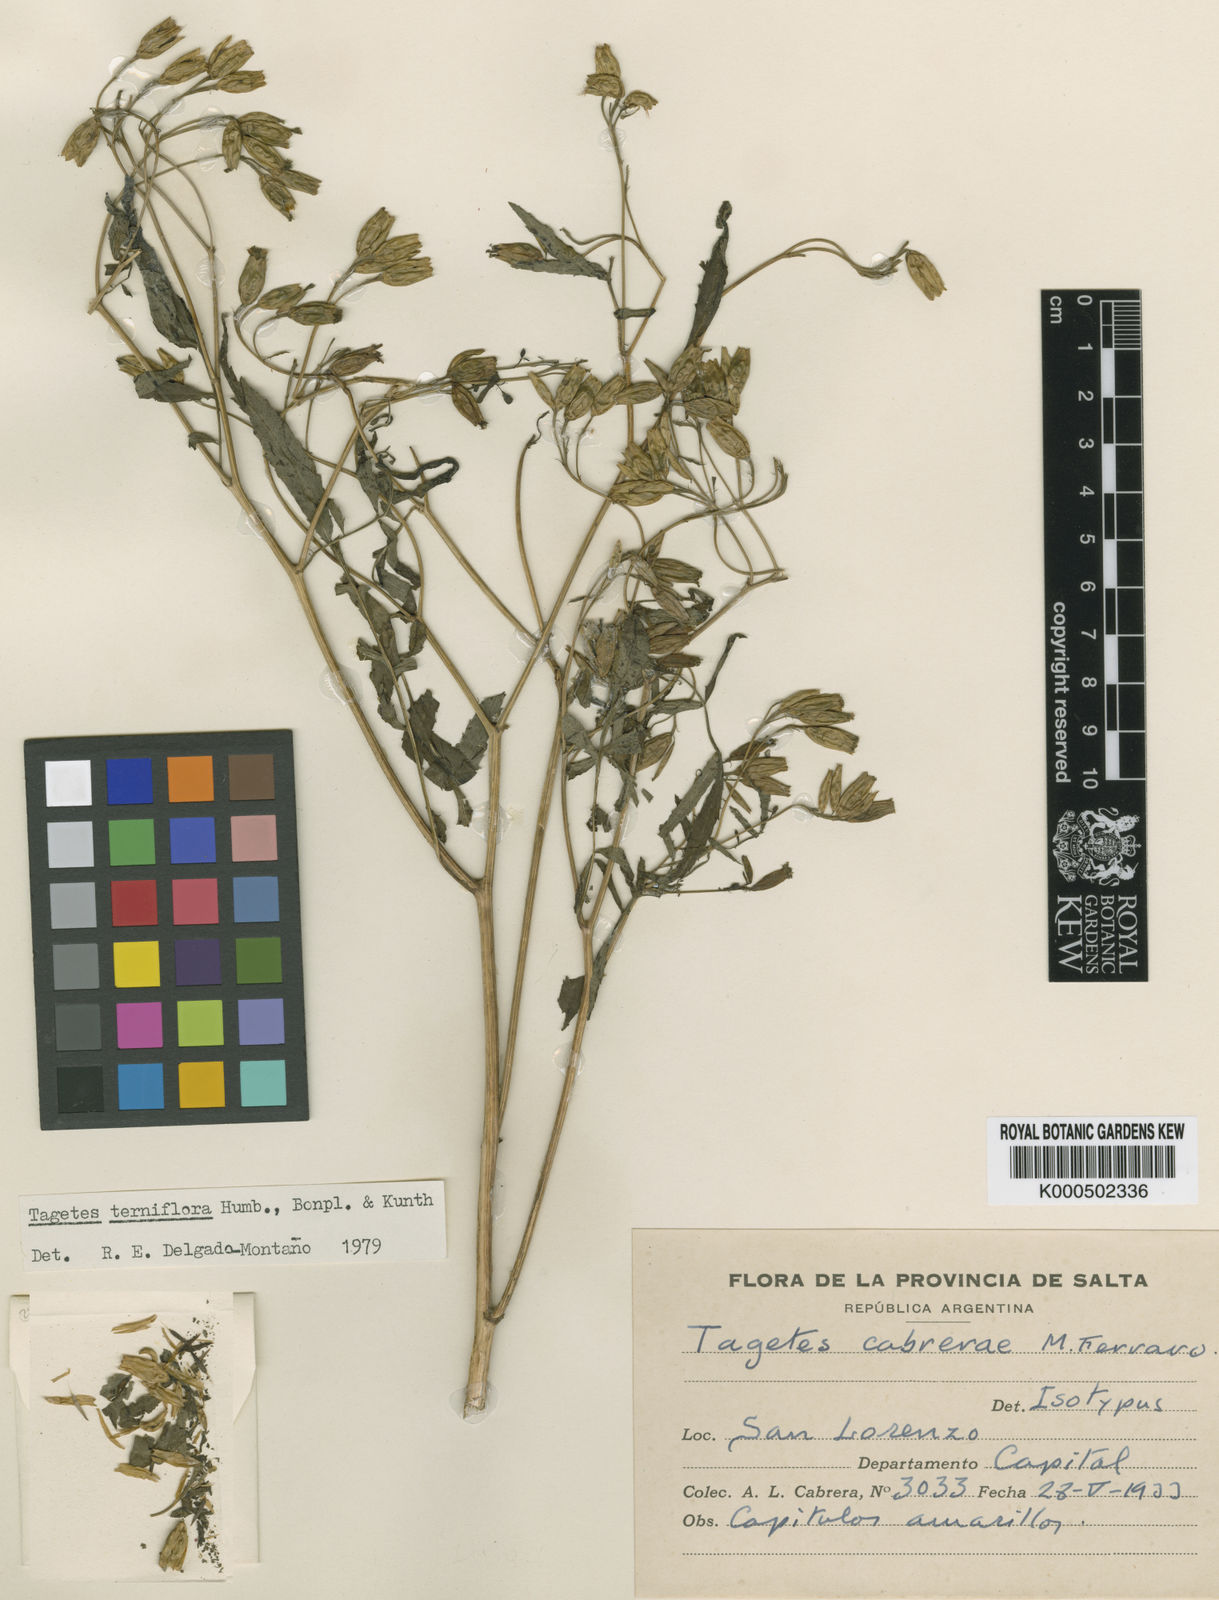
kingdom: Plantae
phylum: Tracheophyta
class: Magnoliopsida
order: Asterales
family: Asteraceae
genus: Tagetes
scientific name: Tagetes terniflora
